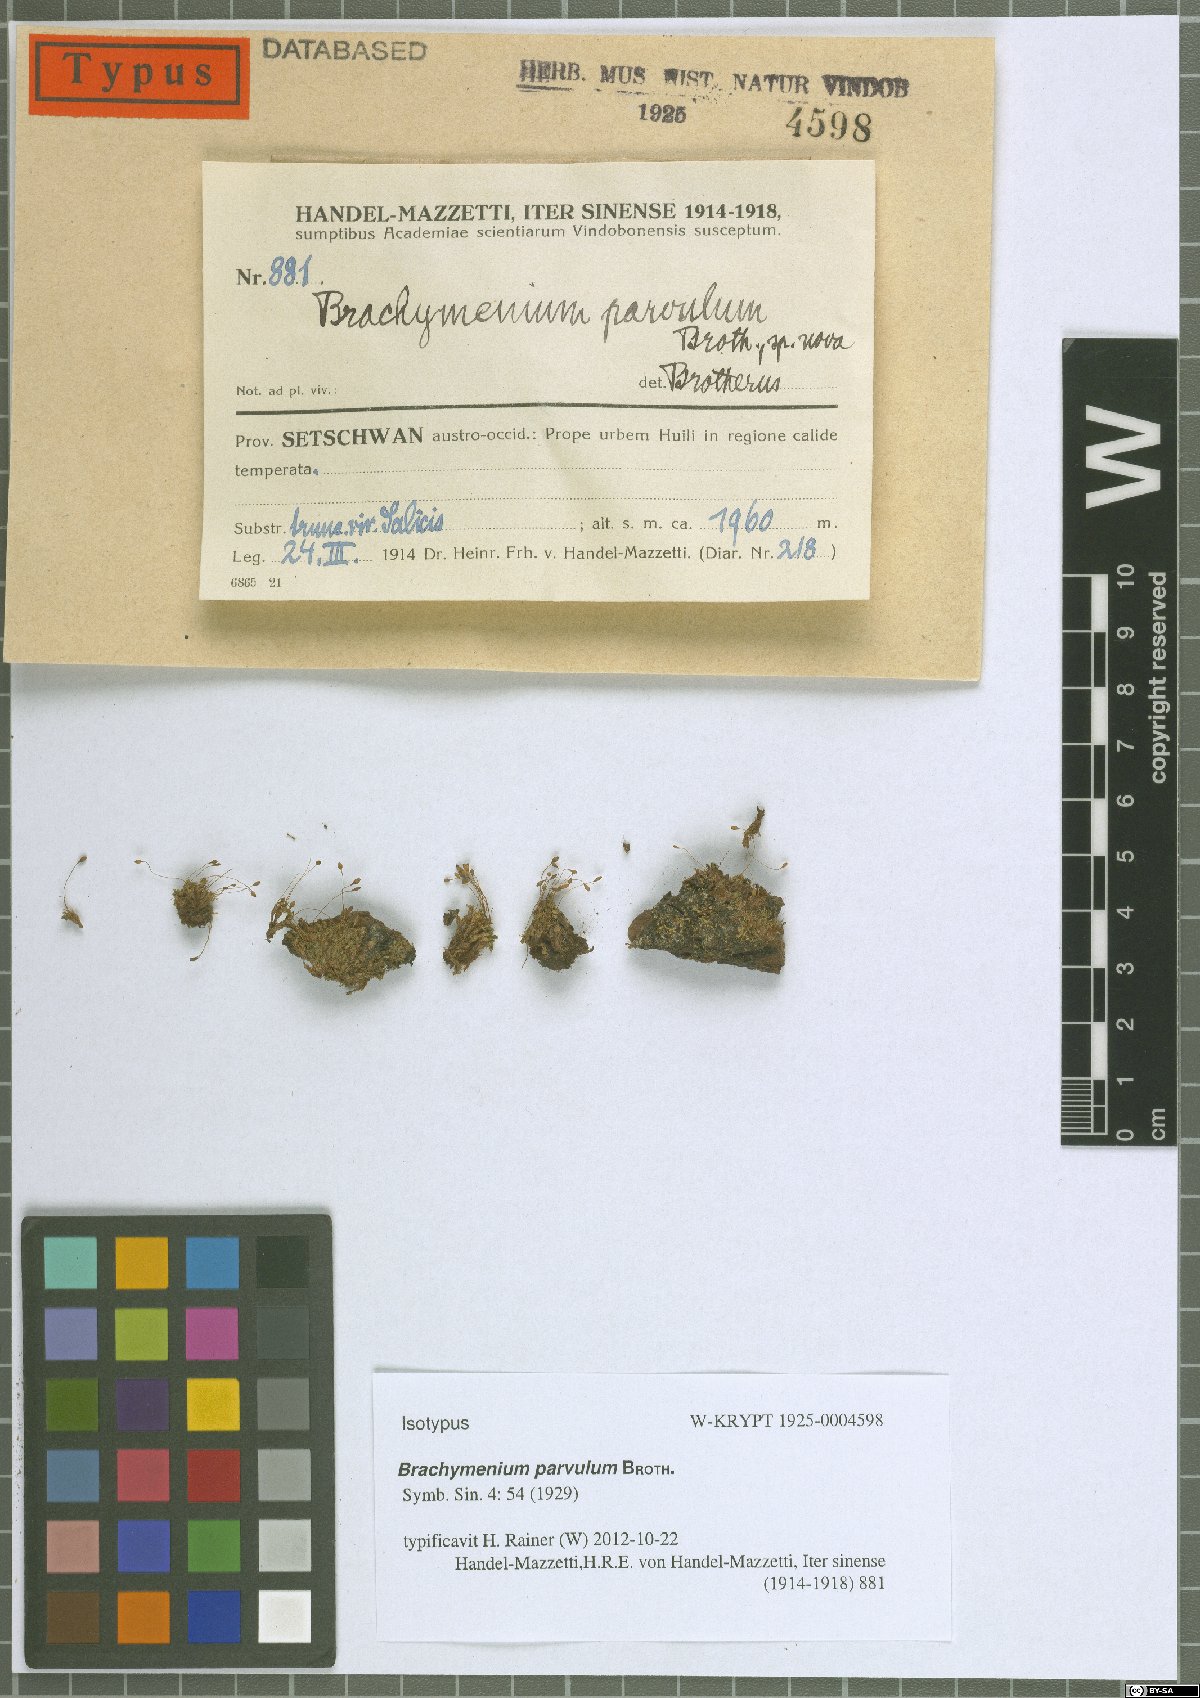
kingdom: Plantae
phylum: Bryophyta
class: Bryopsida
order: Bryales
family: Bryaceae
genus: Brachymenium
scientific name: Brachymenium nepalense
